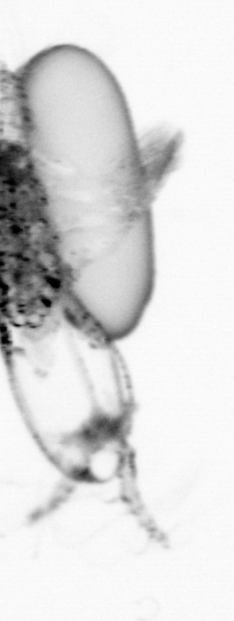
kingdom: Animalia
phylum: Arthropoda
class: Copepoda
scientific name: Copepoda
